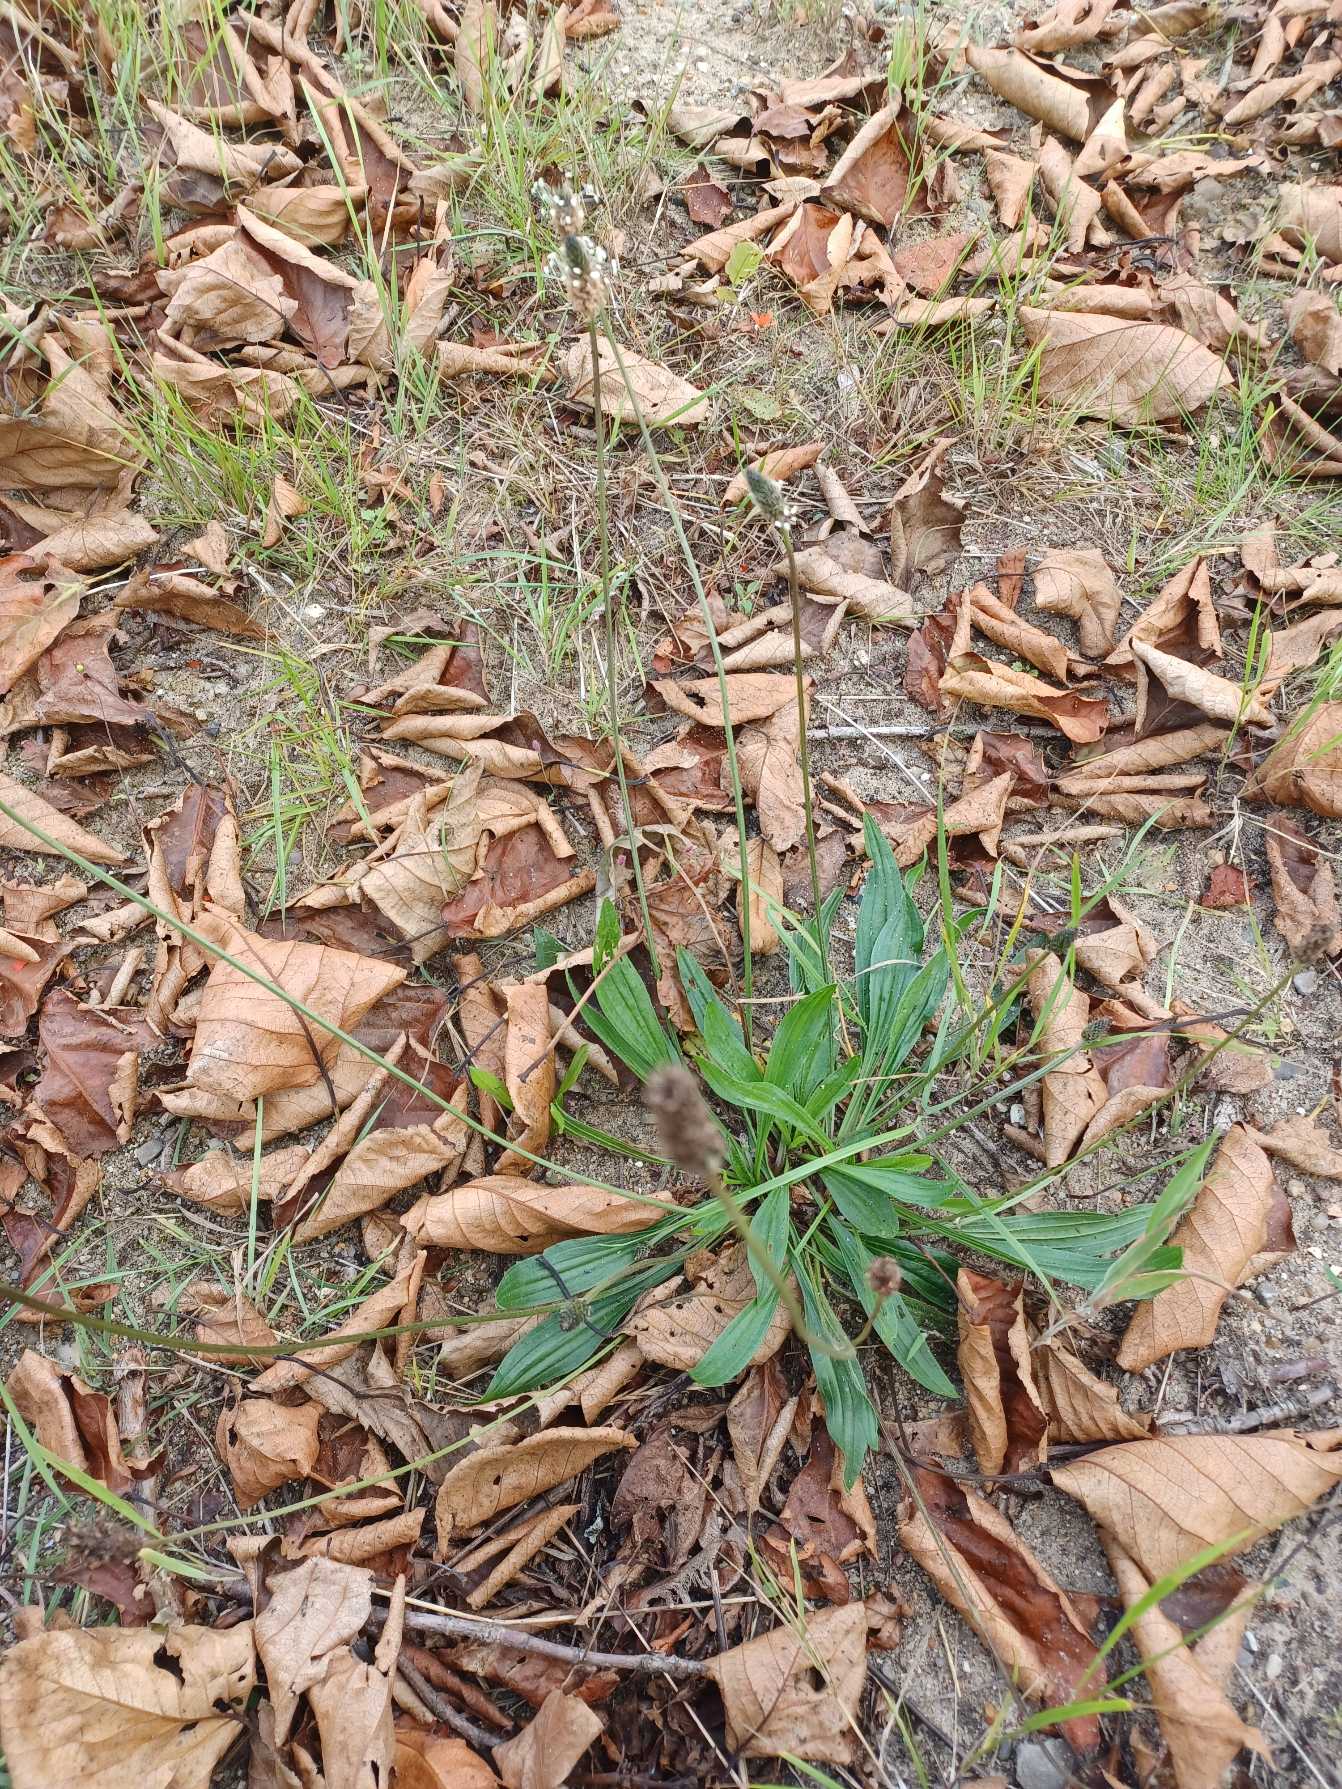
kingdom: Plantae
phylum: Tracheophyta
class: Magnoliopsida
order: Lamiales
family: Plantaginaceae
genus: Plantago
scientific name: Plantago lanceolata
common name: Lancet-vejbred
